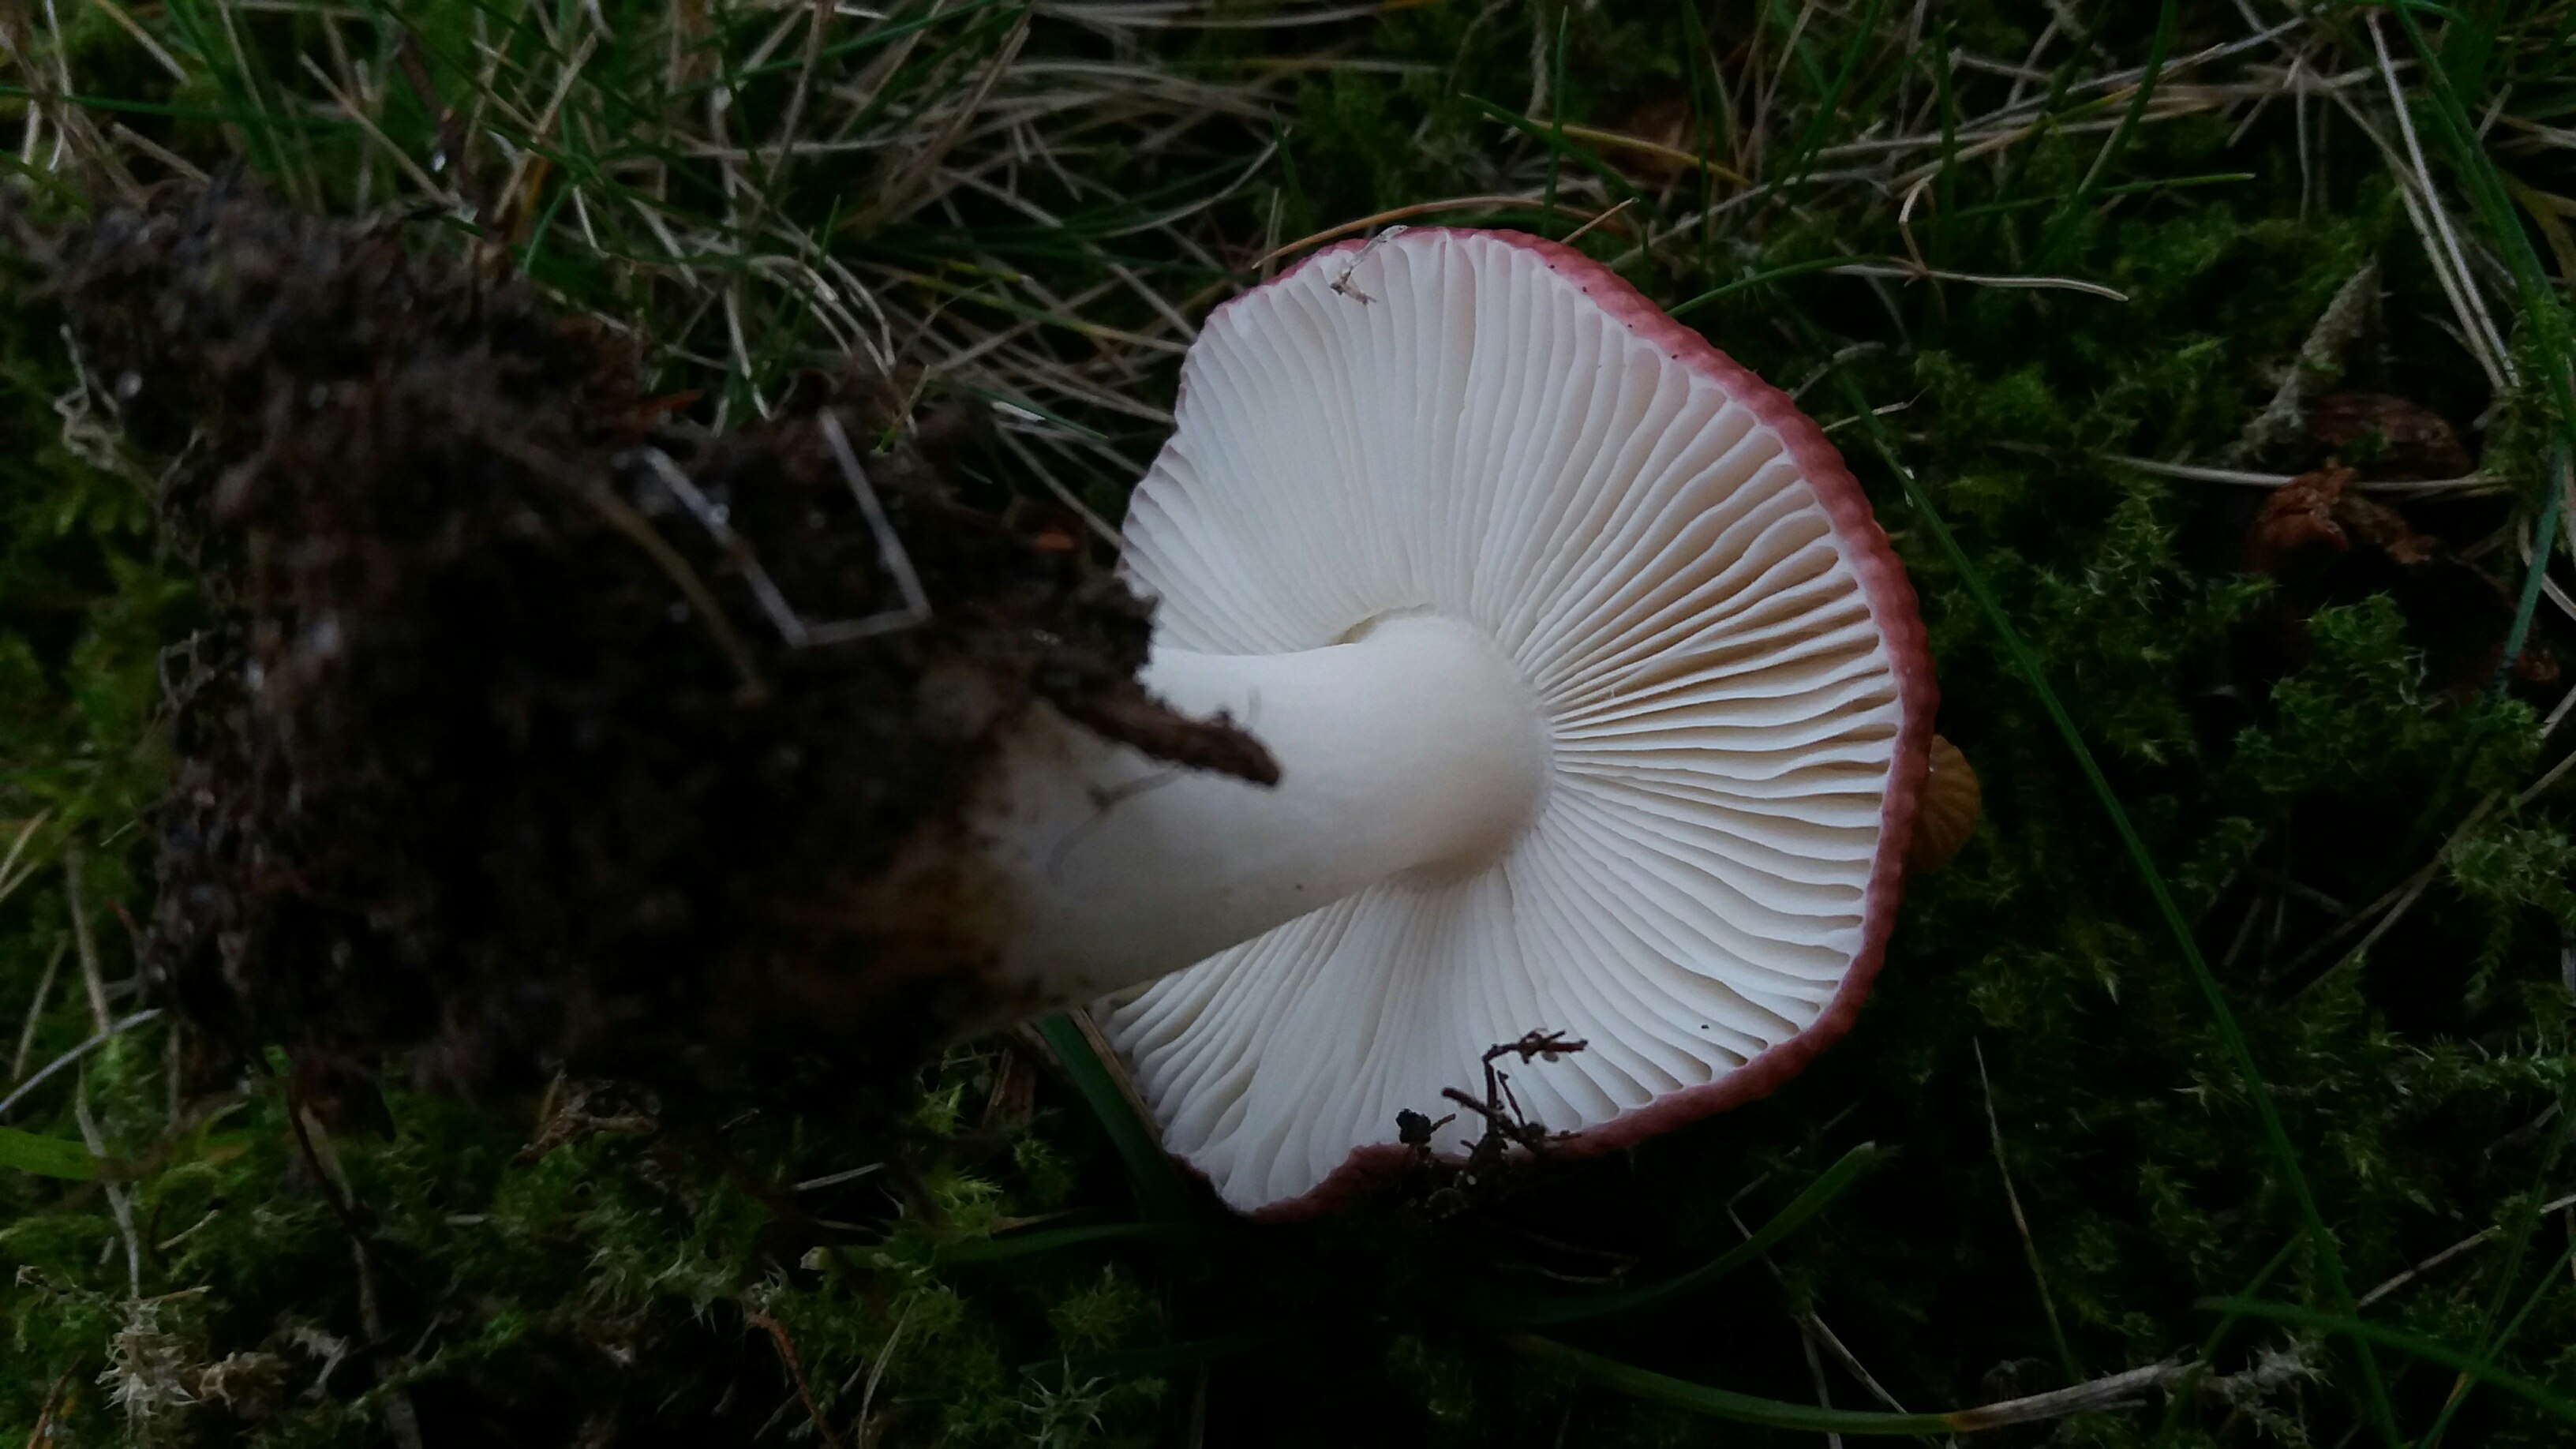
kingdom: Fungi
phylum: Basidiomycota
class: Agaricomycetes
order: Russulales
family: Russulaceae
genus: Russula
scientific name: Russula fragilis
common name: savbladet skørhat
